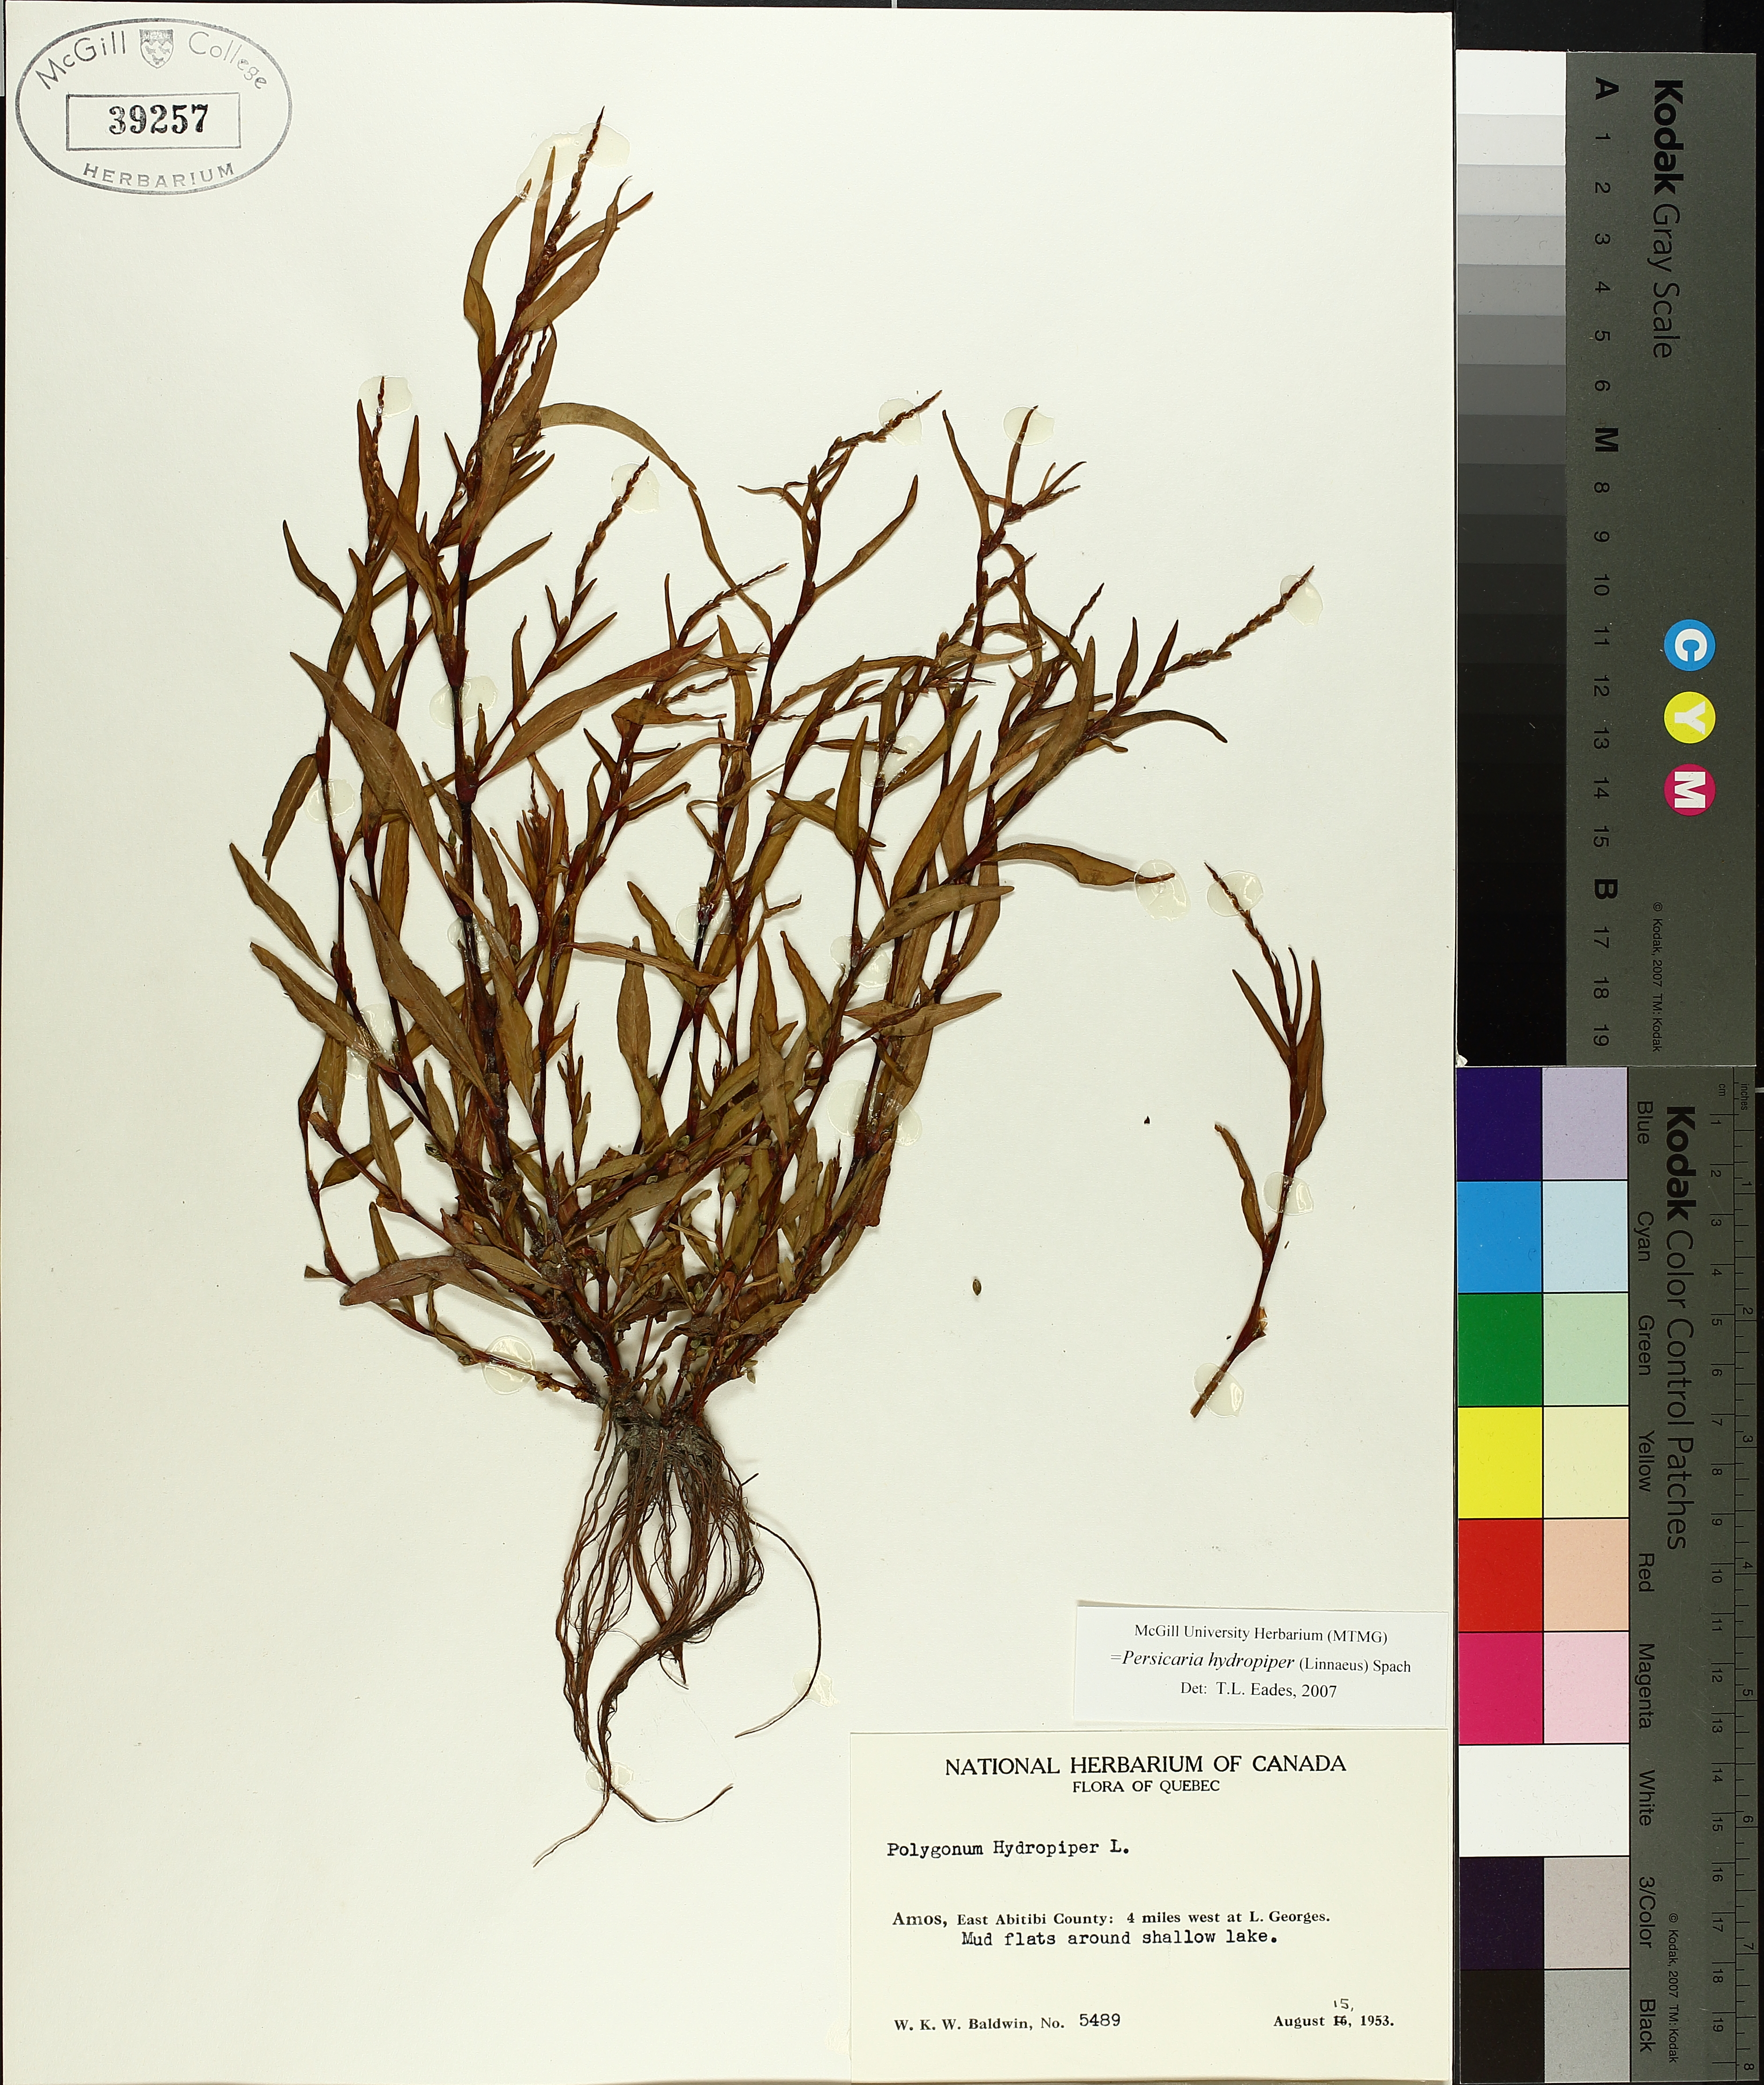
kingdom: Plantae
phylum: Tracheophyta
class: Magnoliopsida
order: Caryophyllales
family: Polygonaceae
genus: Persicaria
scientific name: Persicaria hydropiper
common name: Water-pepper
